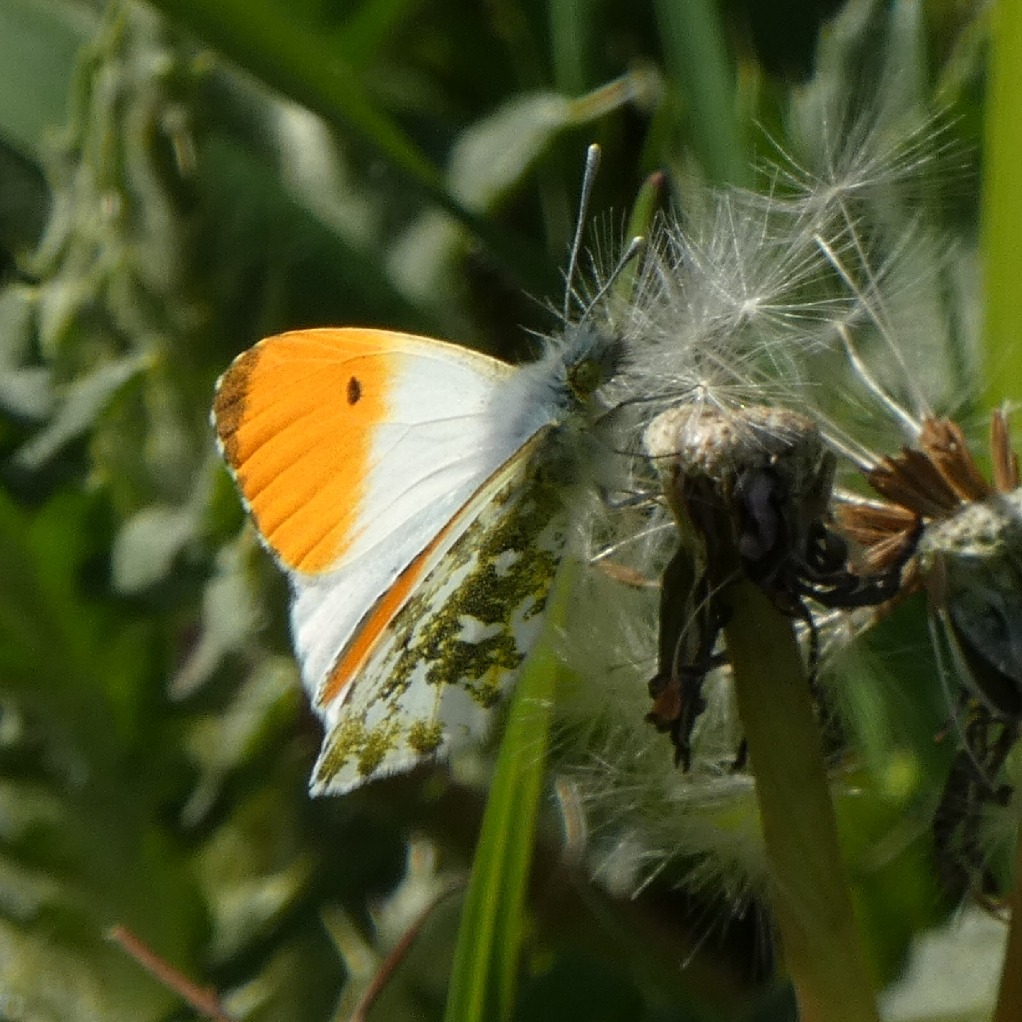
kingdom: Animalia
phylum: Arthropoda
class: Insecta
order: Lepidoptera
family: Pieridae
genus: Anthocharis
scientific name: Anthocharis cardamines
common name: Aurora
